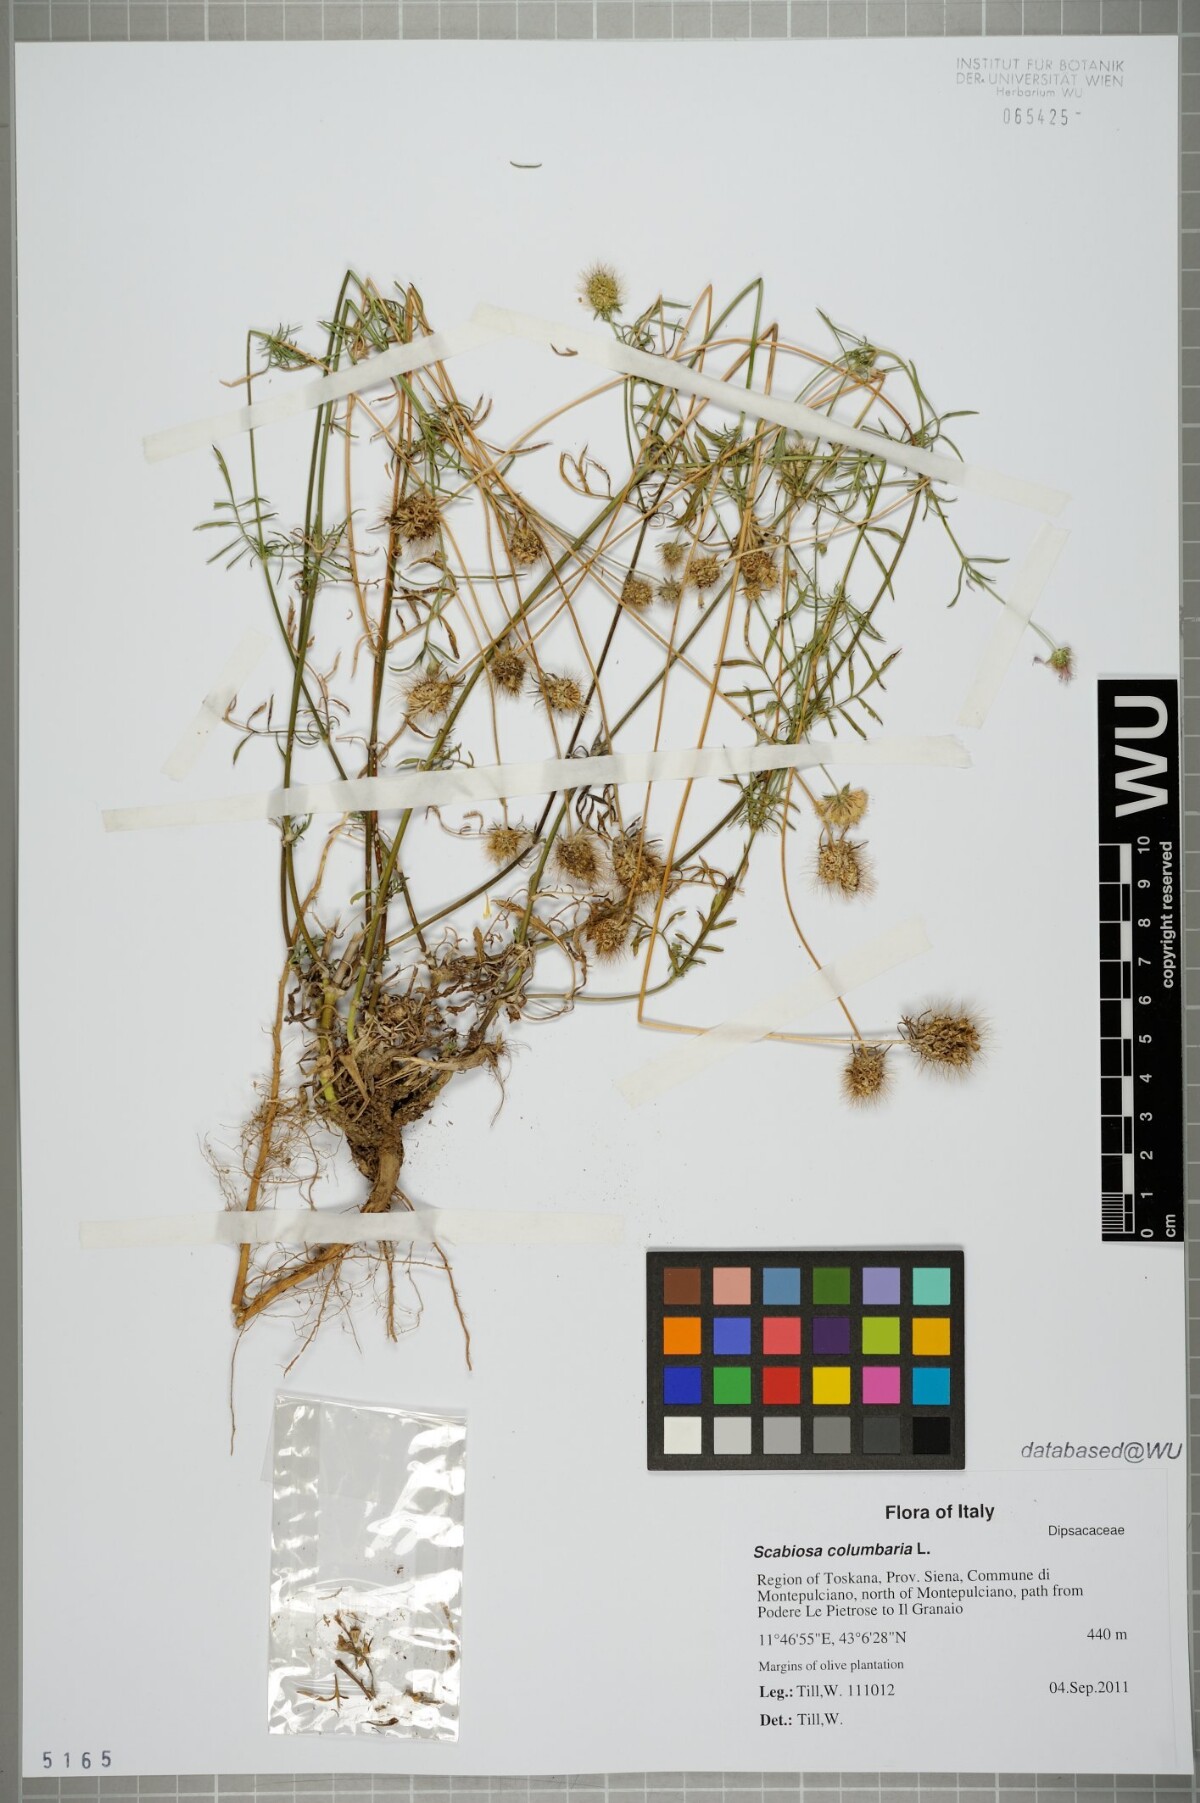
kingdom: Plantae
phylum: Tracheophyta
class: Magnoliopsida
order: Dipsacales
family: Caprifoliaceae
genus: Scabiosa
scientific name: Scabiosa columbaria
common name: Small scabious
